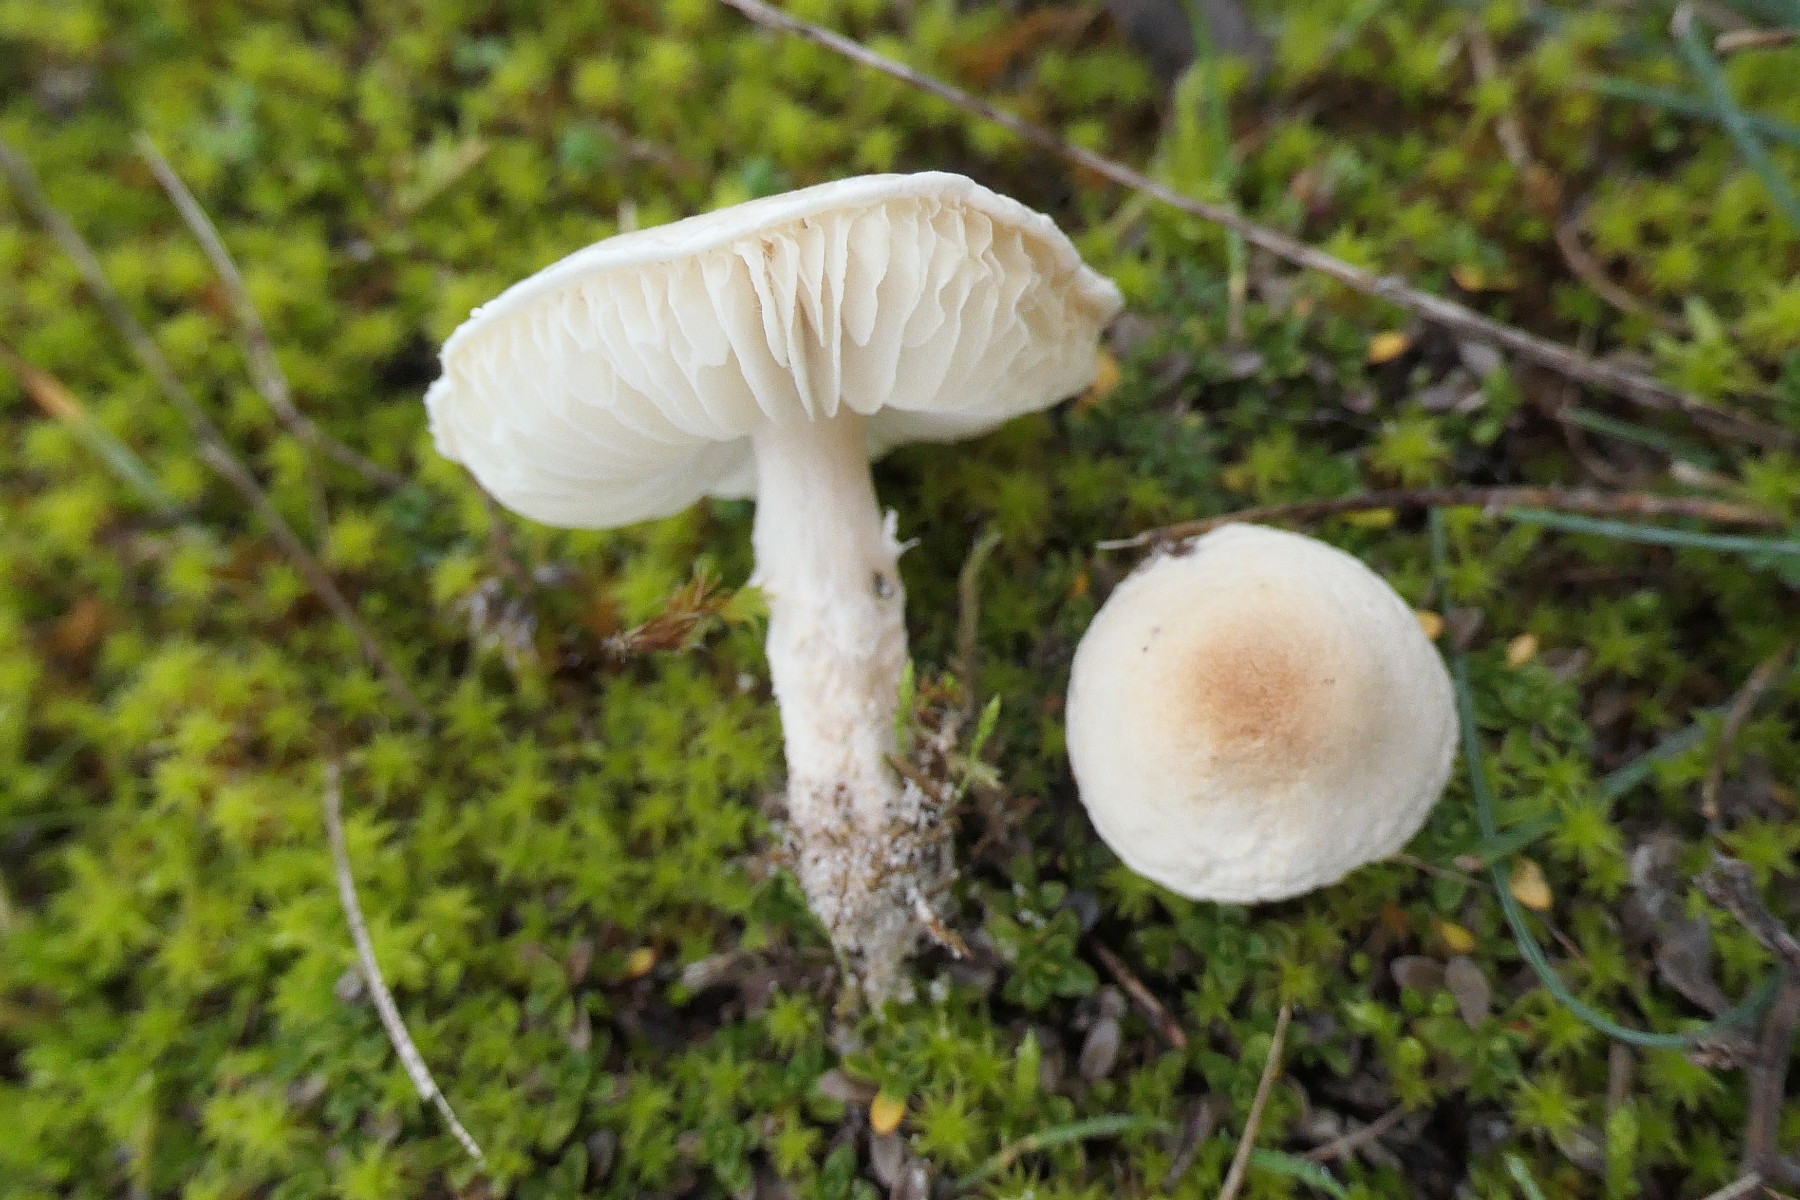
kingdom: Fungi
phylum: Basidiomycota
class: Agaricomycetes
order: Agaricales
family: Agaricaceae
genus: Lepiota
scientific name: Lepiota erminea
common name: hvid parasolhat
